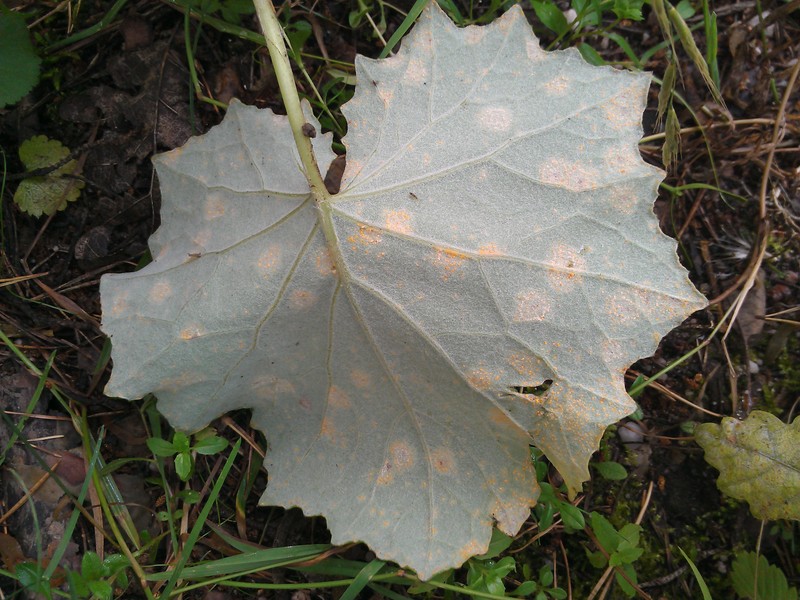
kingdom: Fungi
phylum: Basidiomycota
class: Pucciniomycetes
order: Pucciniales
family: Melampsoraceae
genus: Melampsora
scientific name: Melampsora
